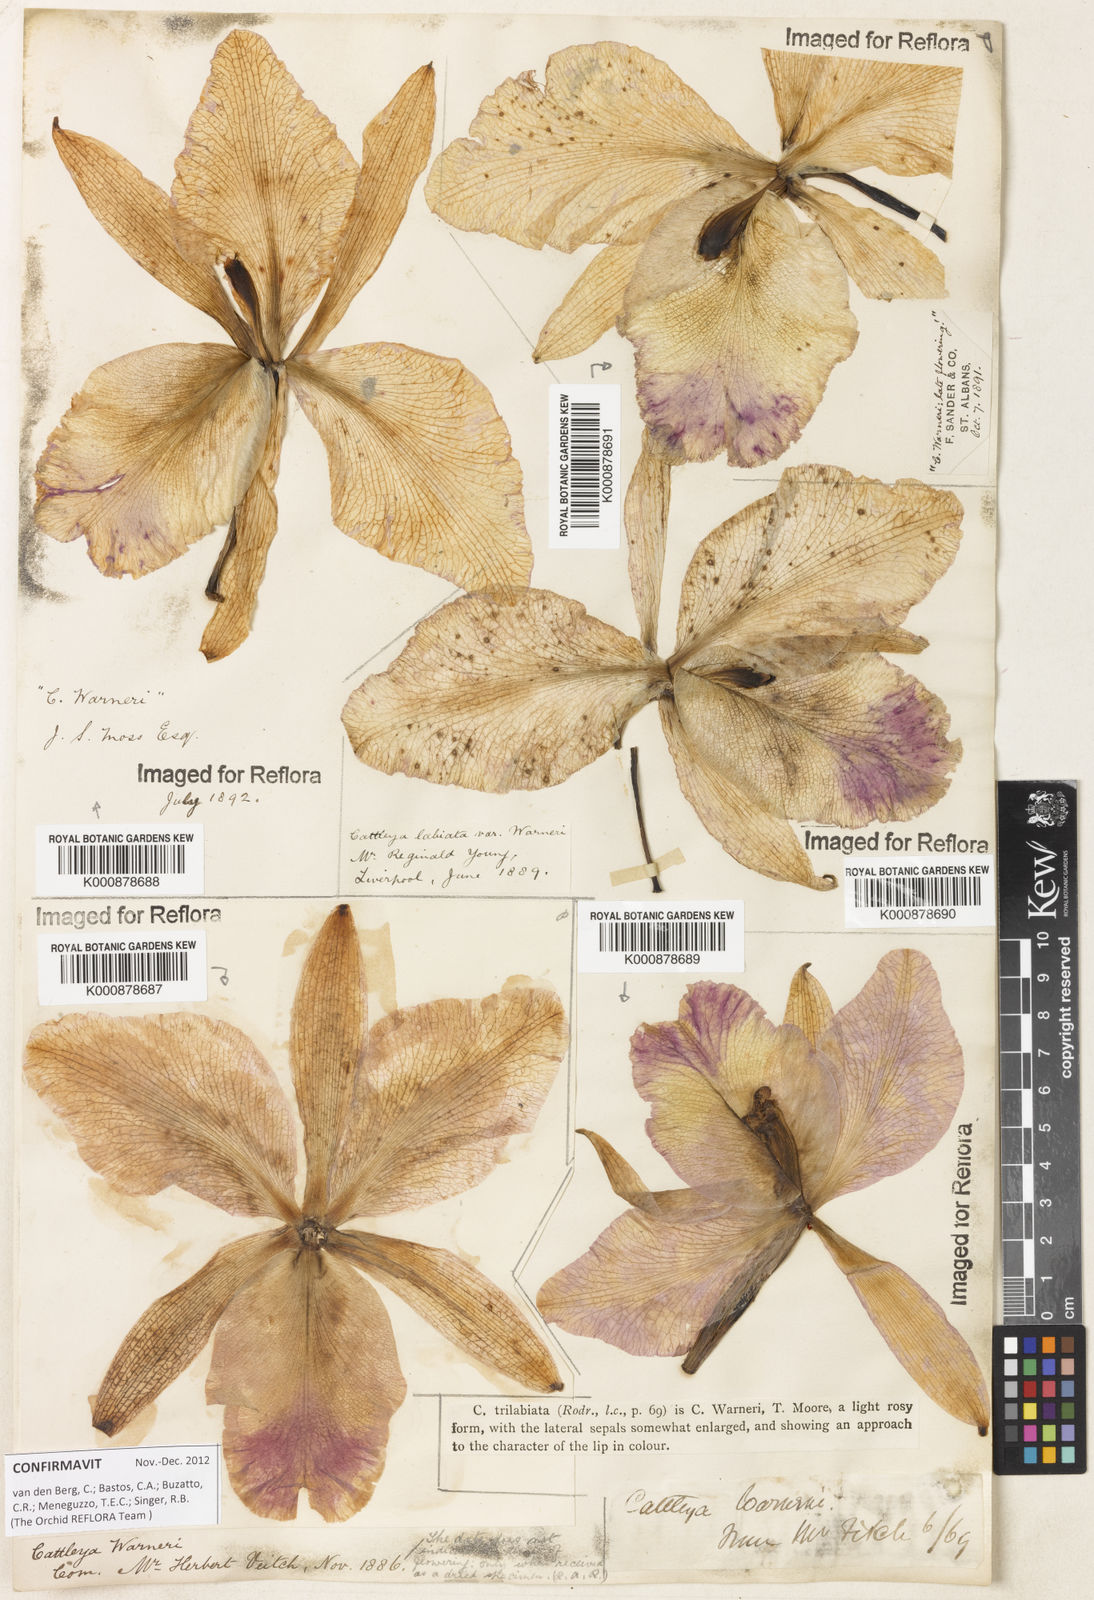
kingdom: Plantae
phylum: Tracheophyta
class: Liliopsida
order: Asparagales
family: Orchidaceae
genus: Cattleya
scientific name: Cattleya
